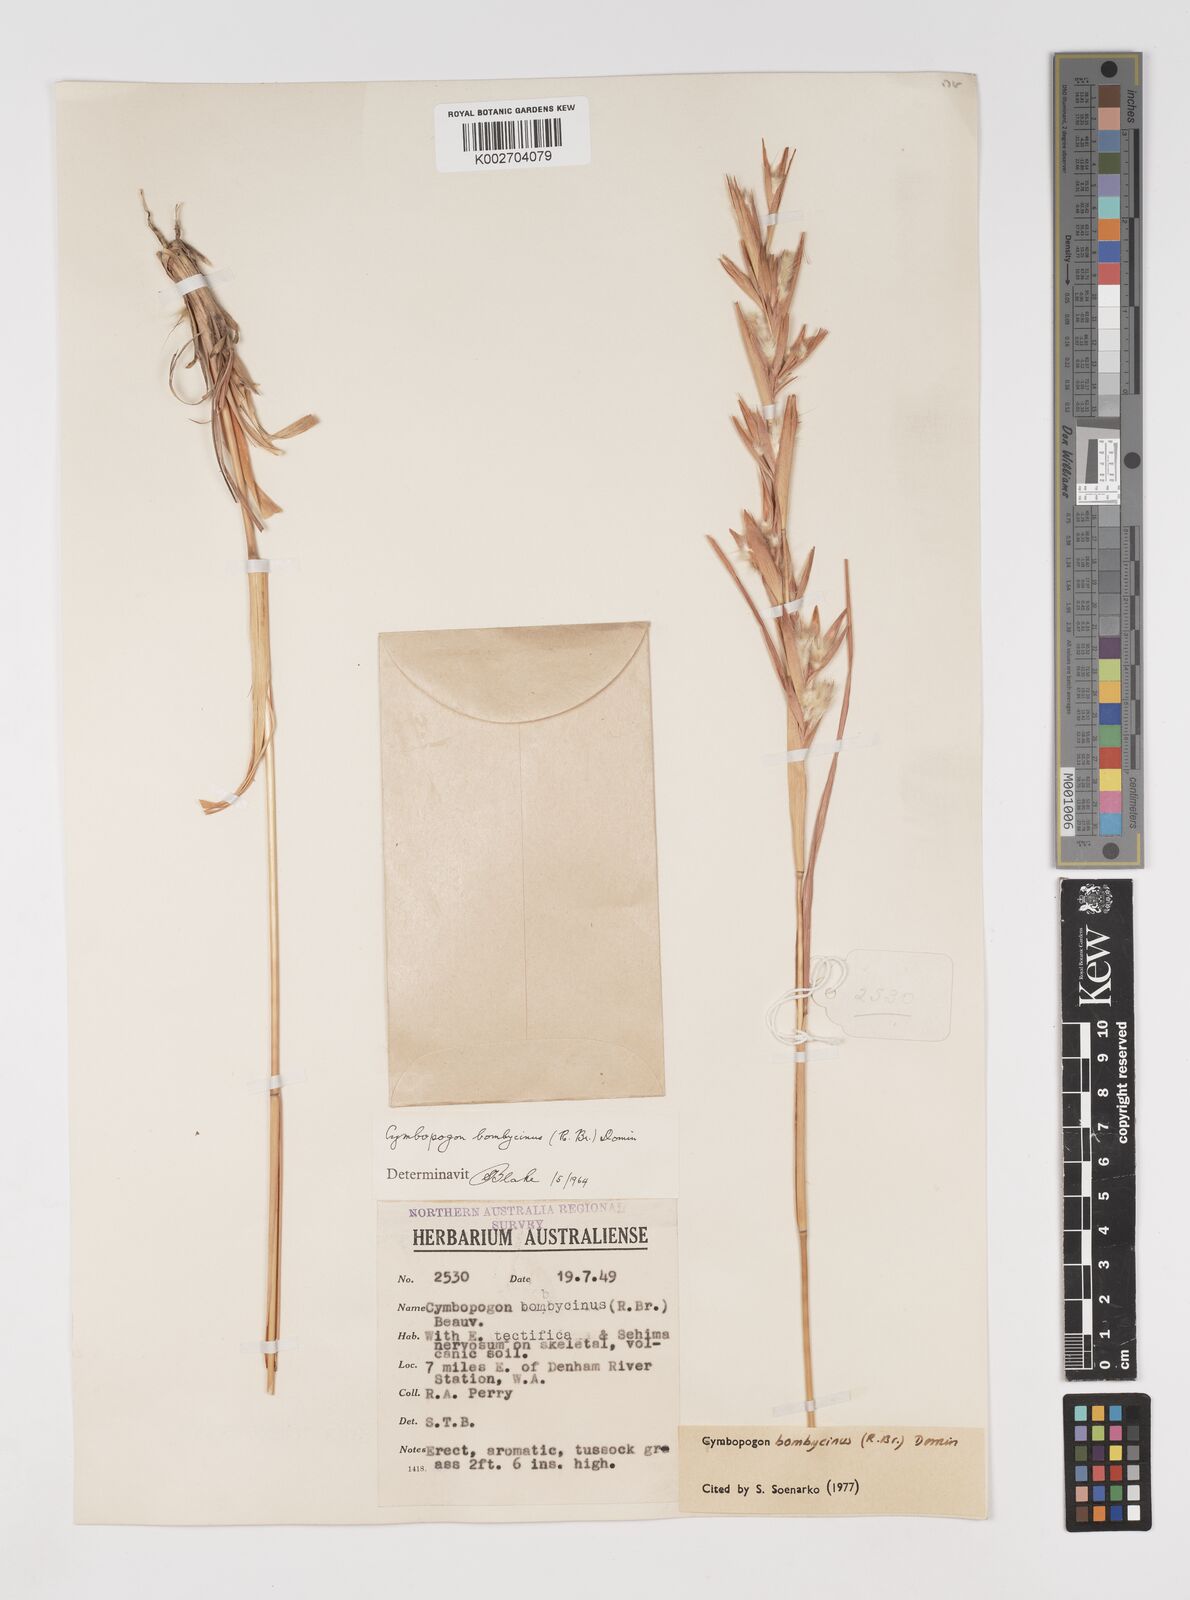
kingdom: Plantae
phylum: Tracheophyta
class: Liliopsida
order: Poales
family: Poaceae
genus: Cymbopogon
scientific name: Cymbopogon bombycinus
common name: Citronella grass
